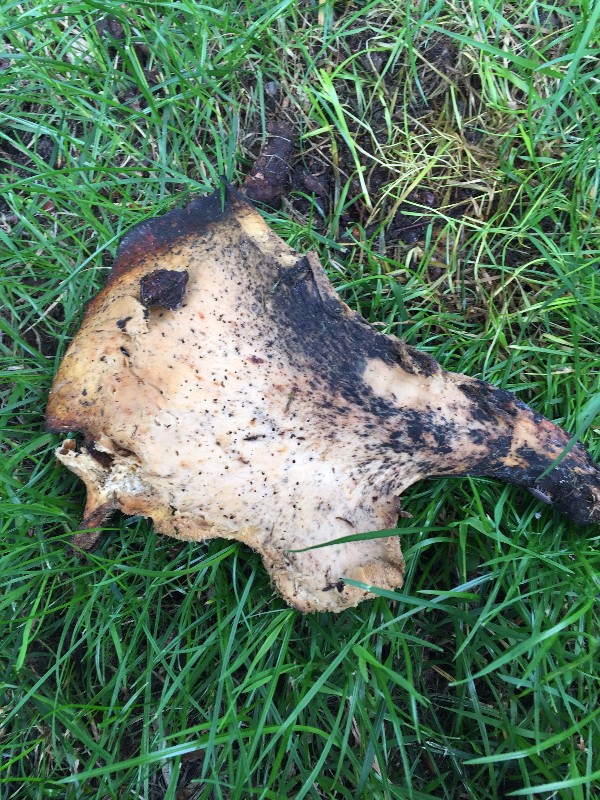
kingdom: Fungi
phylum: Basidiomycota
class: Agaricomycetes
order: Boletales
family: Tapinellaceae
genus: Tapinella
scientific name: Tapinella atrotomentosa
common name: sortfiltet viftesvamp
